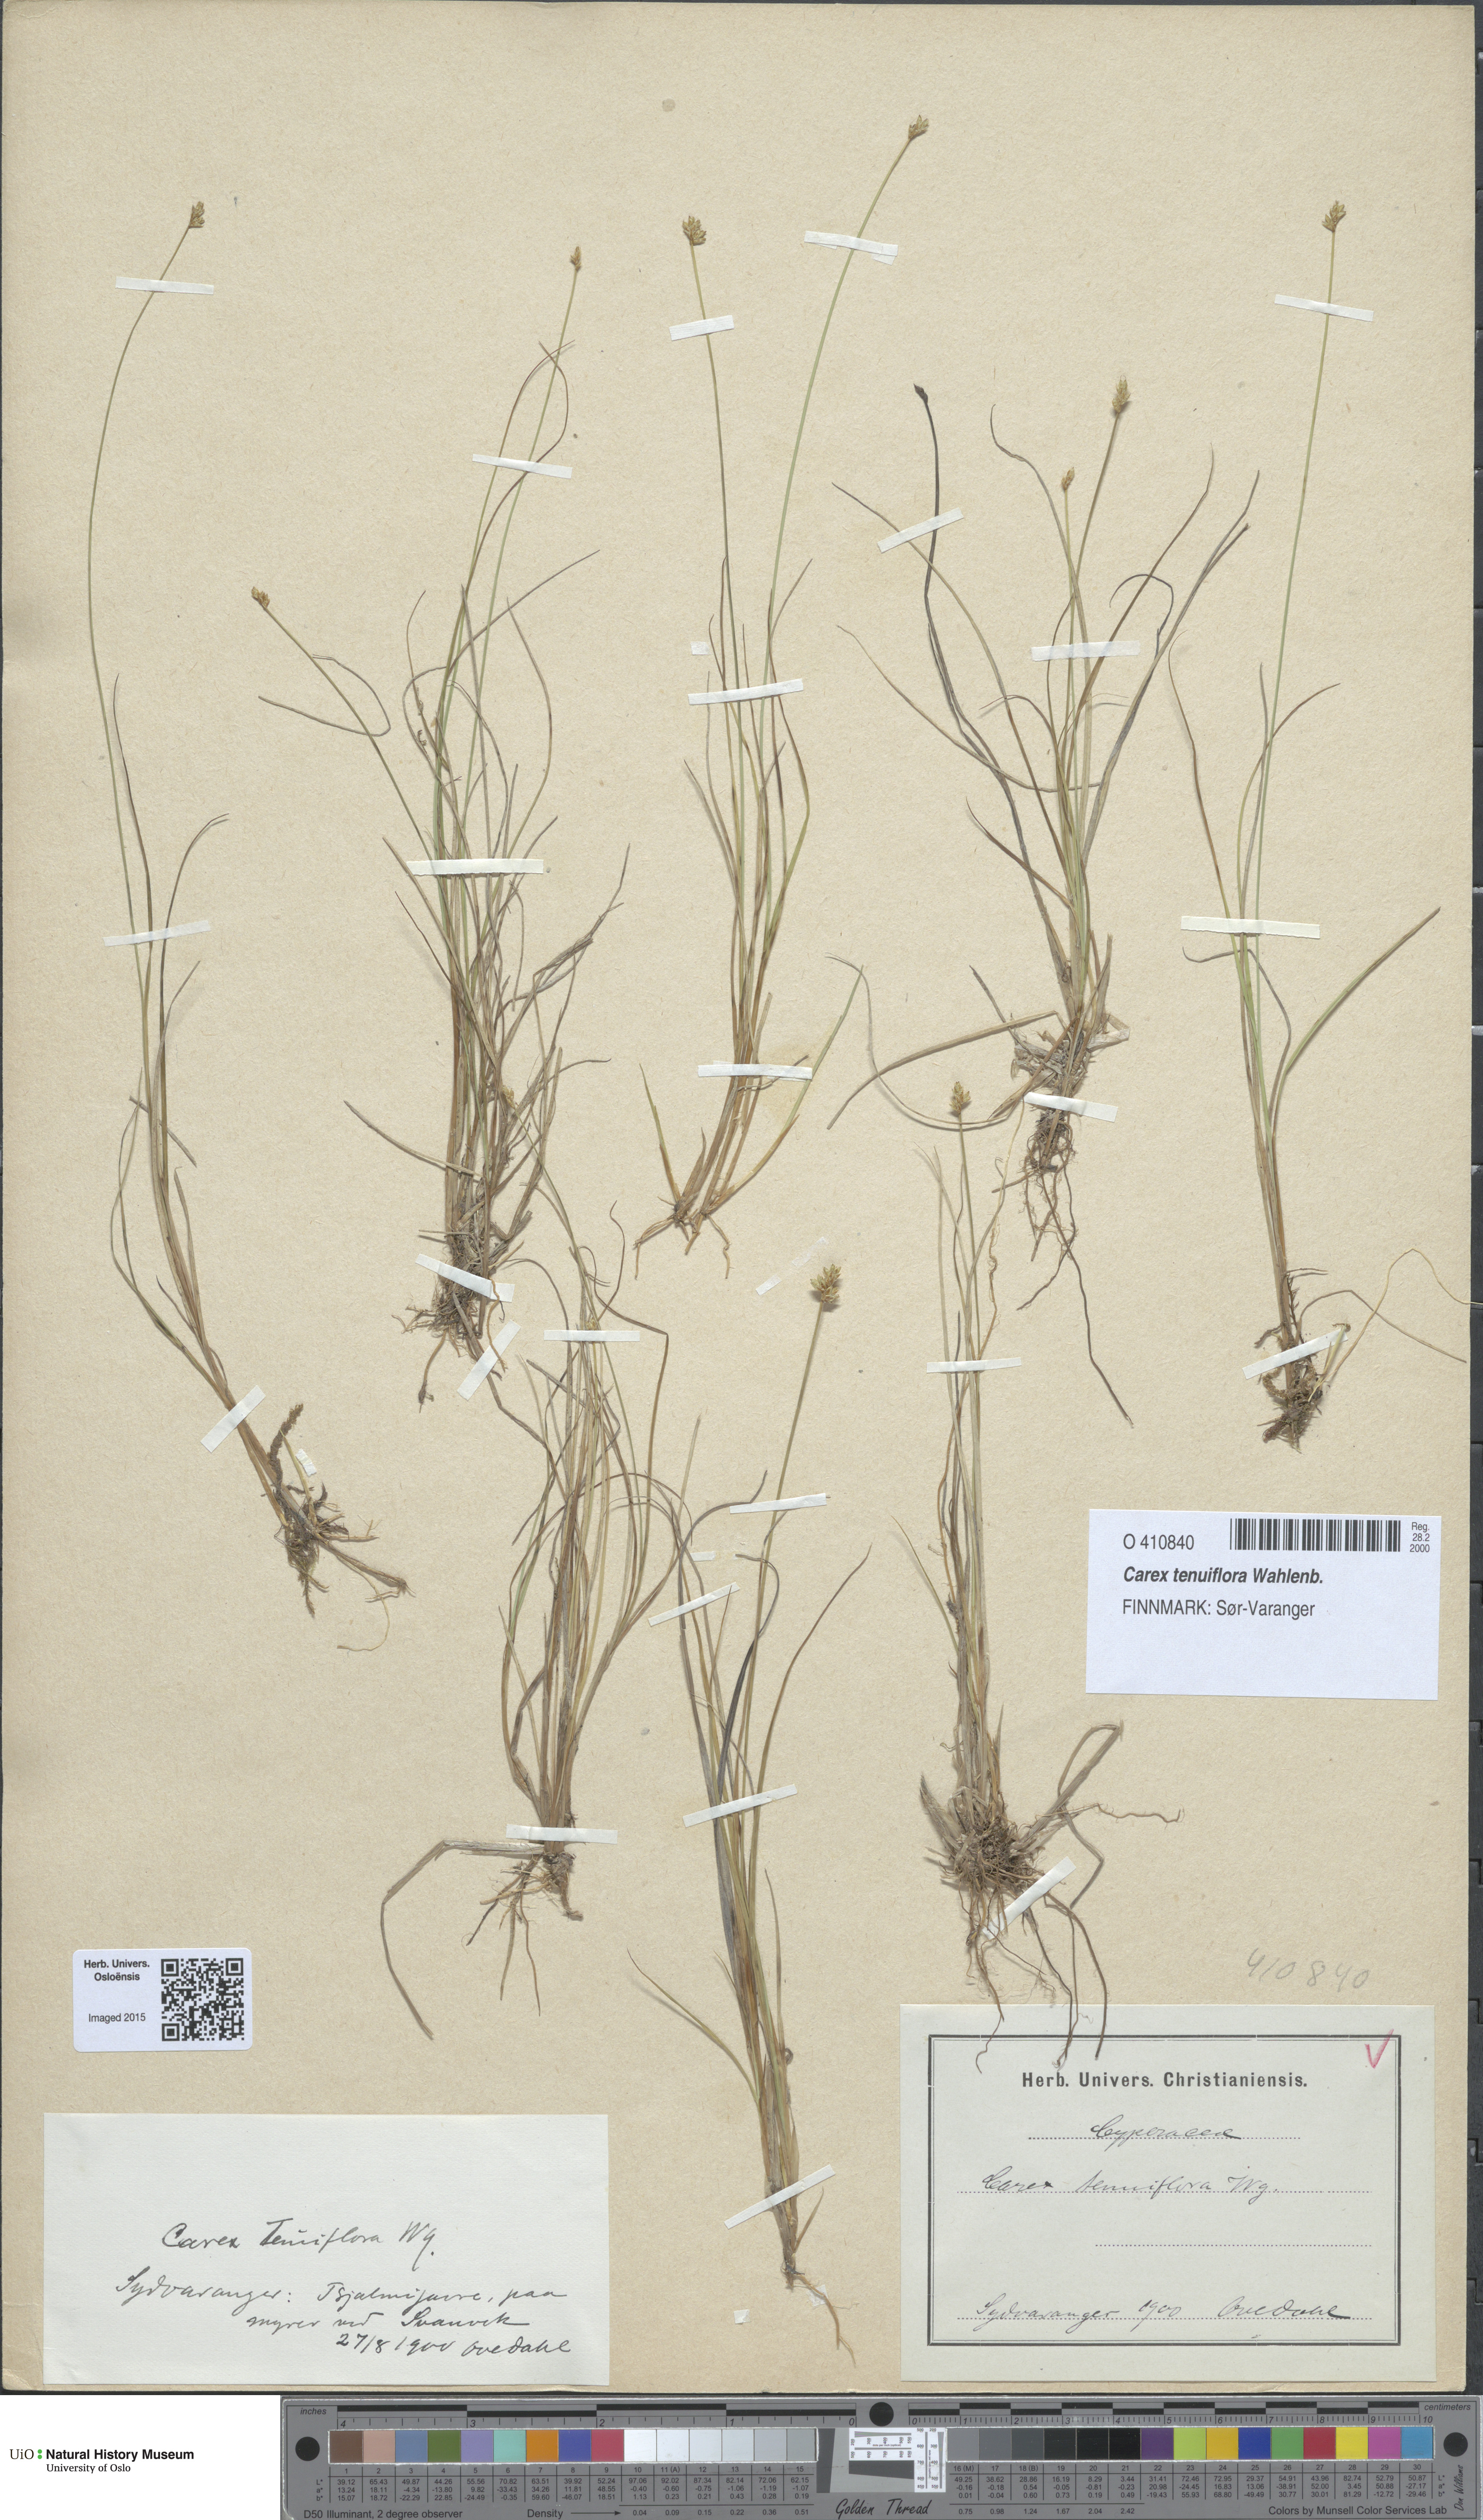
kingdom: Plantae
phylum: Tracheophyta
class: Liliopsida
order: Poales
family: Cyperaceae
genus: Carex
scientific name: Carex tenuiflora
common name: Sparse-flowered sedge
